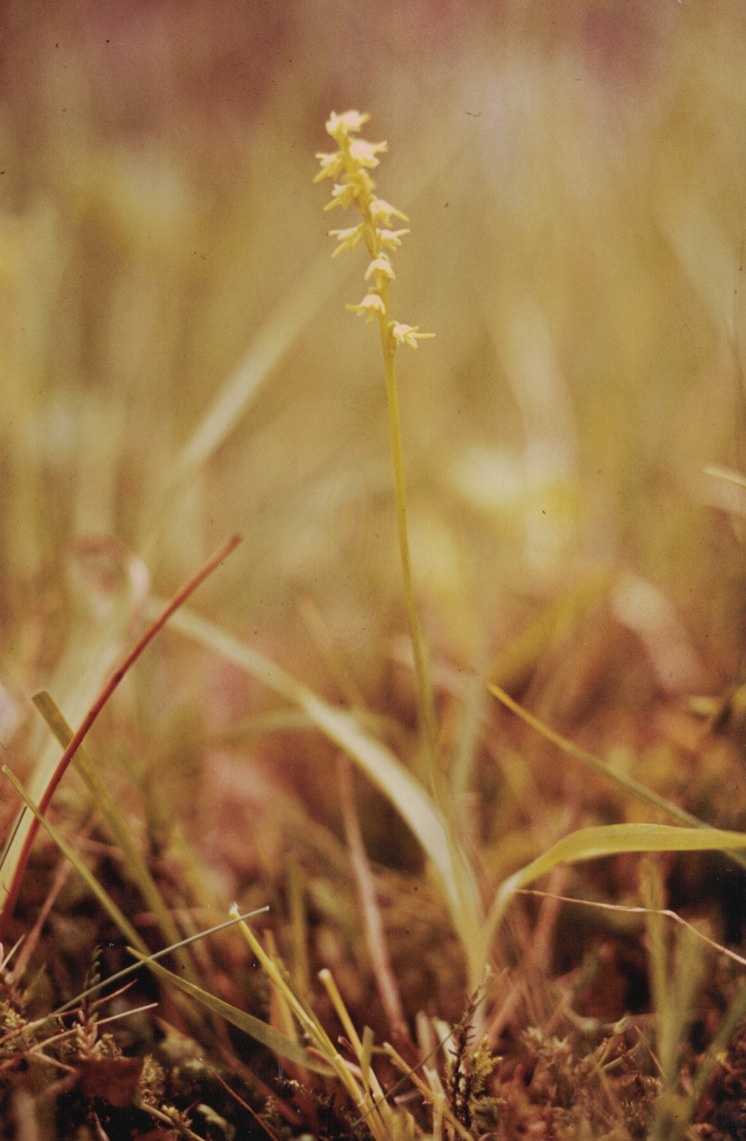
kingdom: Plantae
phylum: Tracheophyta
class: Liliopsida
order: Asparagales
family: Orchidaceae
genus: Herminium
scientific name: Herminium monorchis
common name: Pukkellæbe
